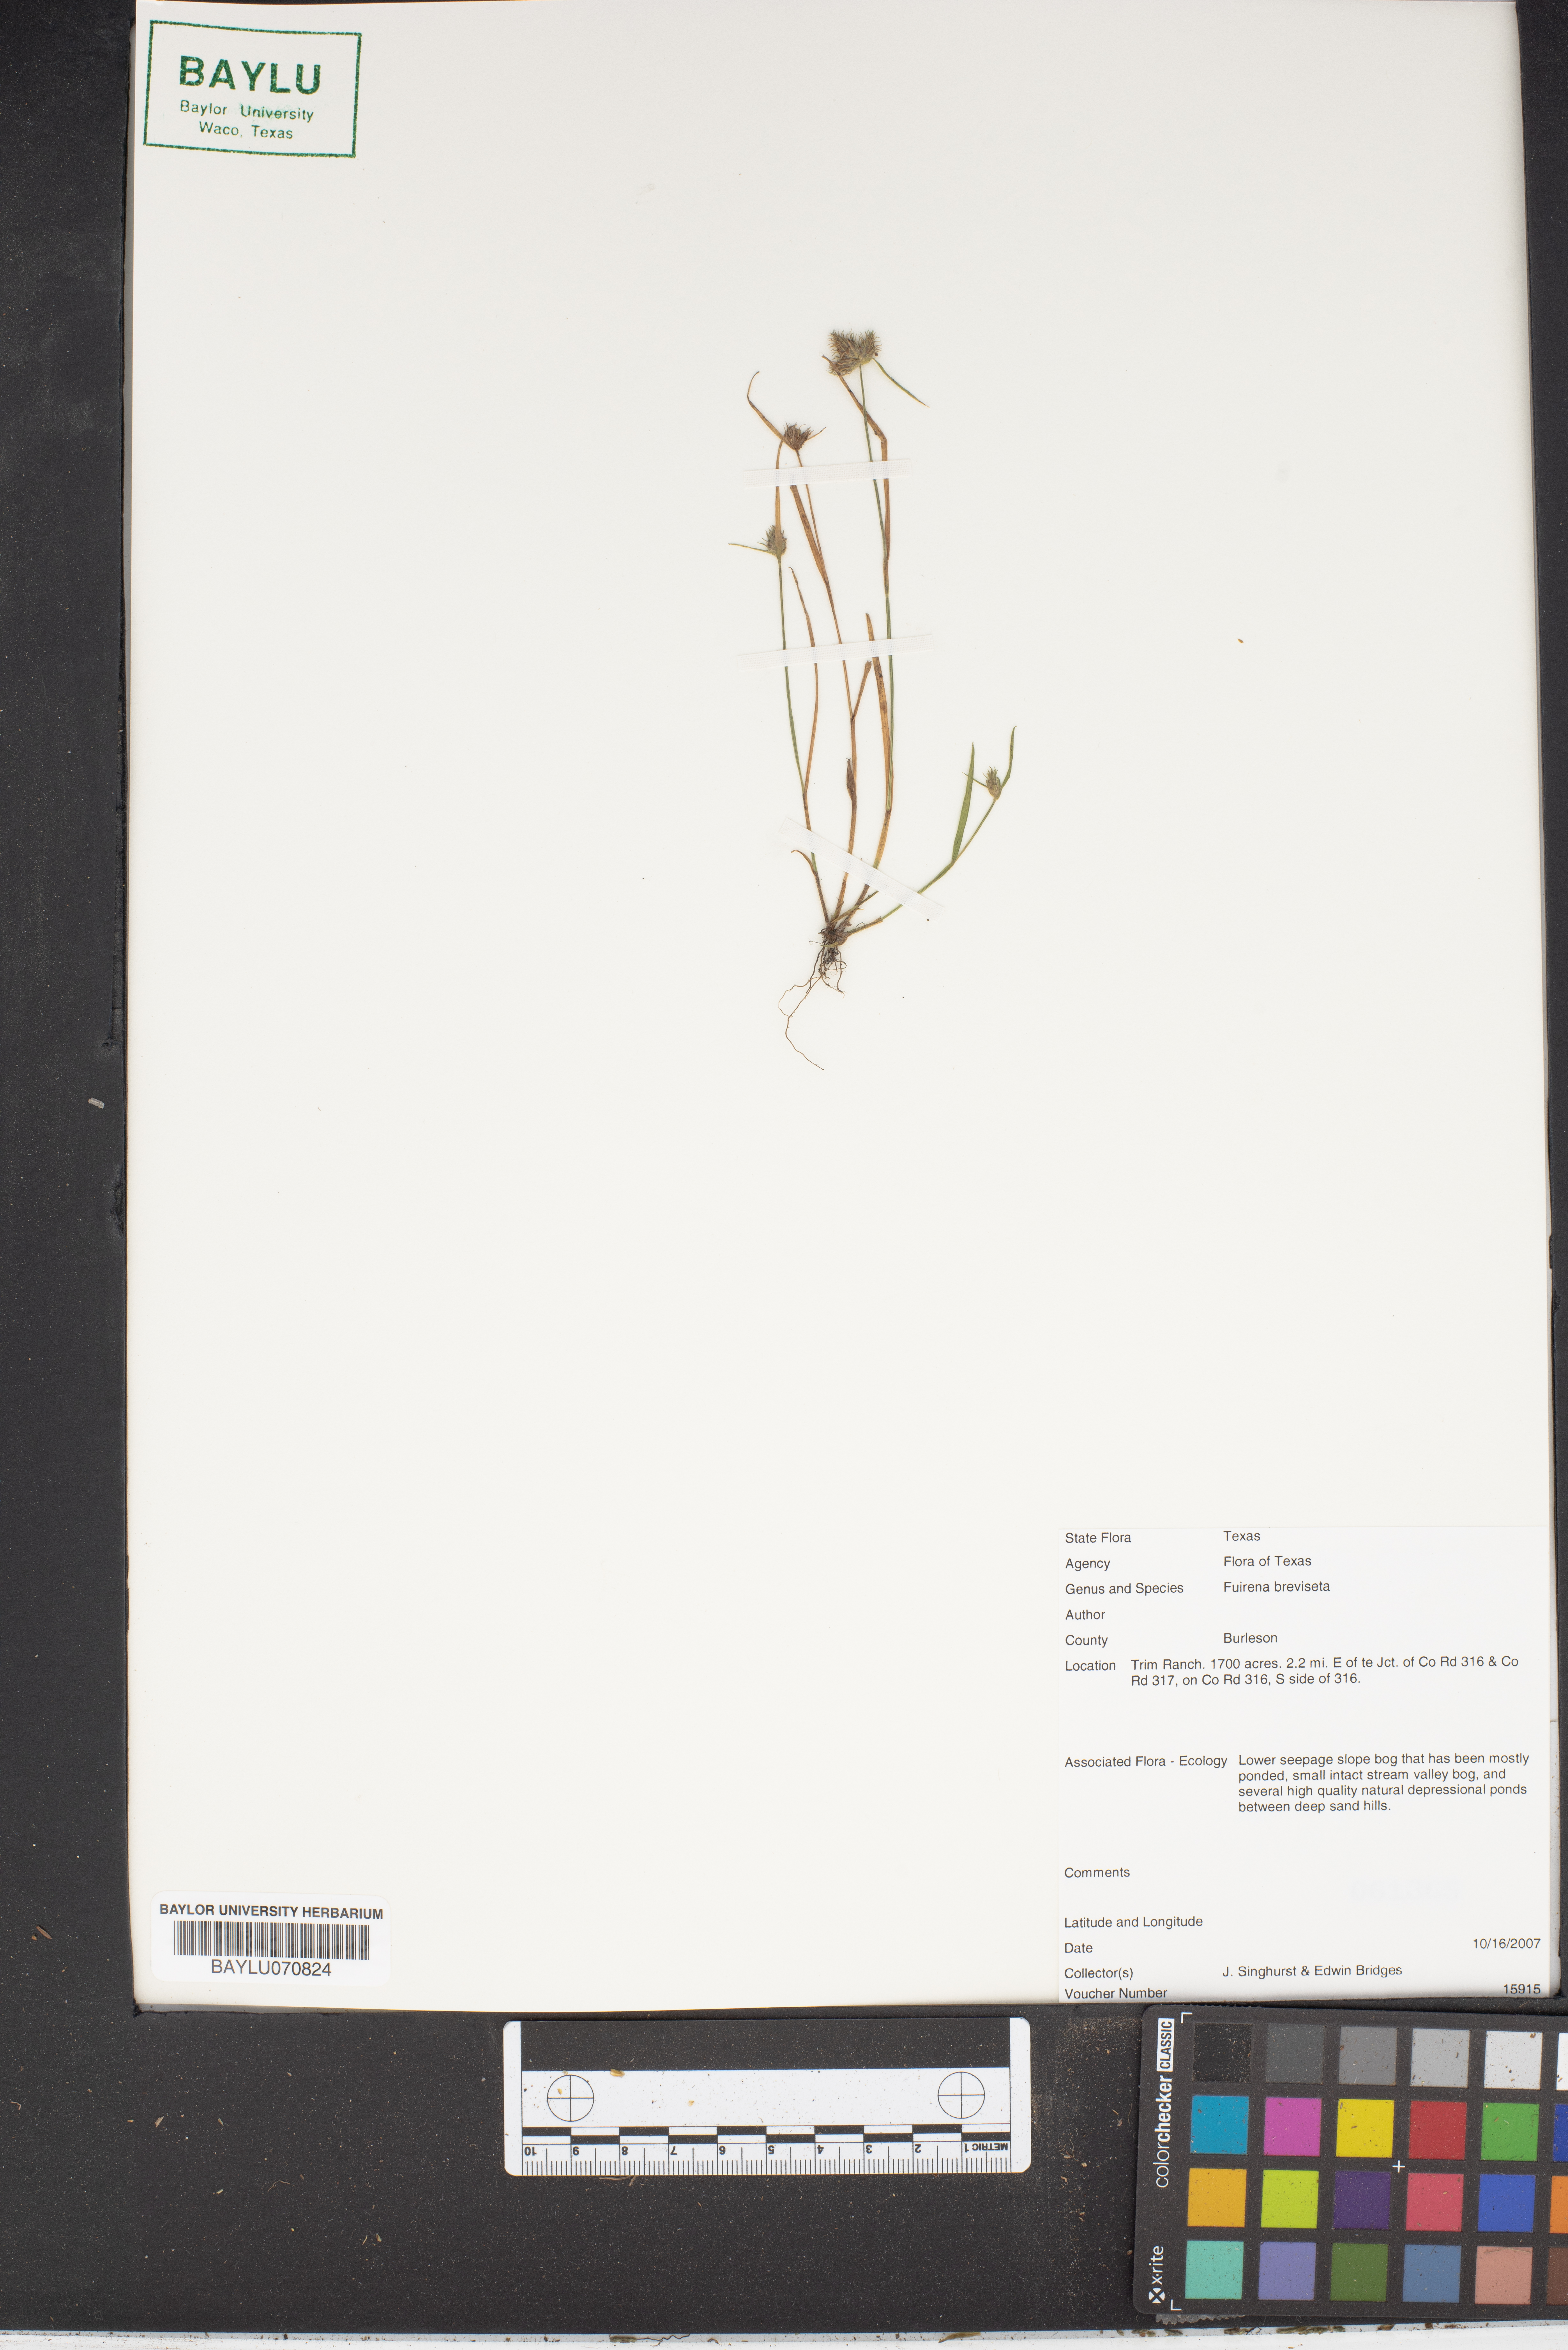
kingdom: Plantae
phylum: Tracheophyta
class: Liliopsida
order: Poales
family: Cyperaceae
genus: Fuirena
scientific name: Fuirena breviseta
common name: Saltmarsh umbrella sedge
